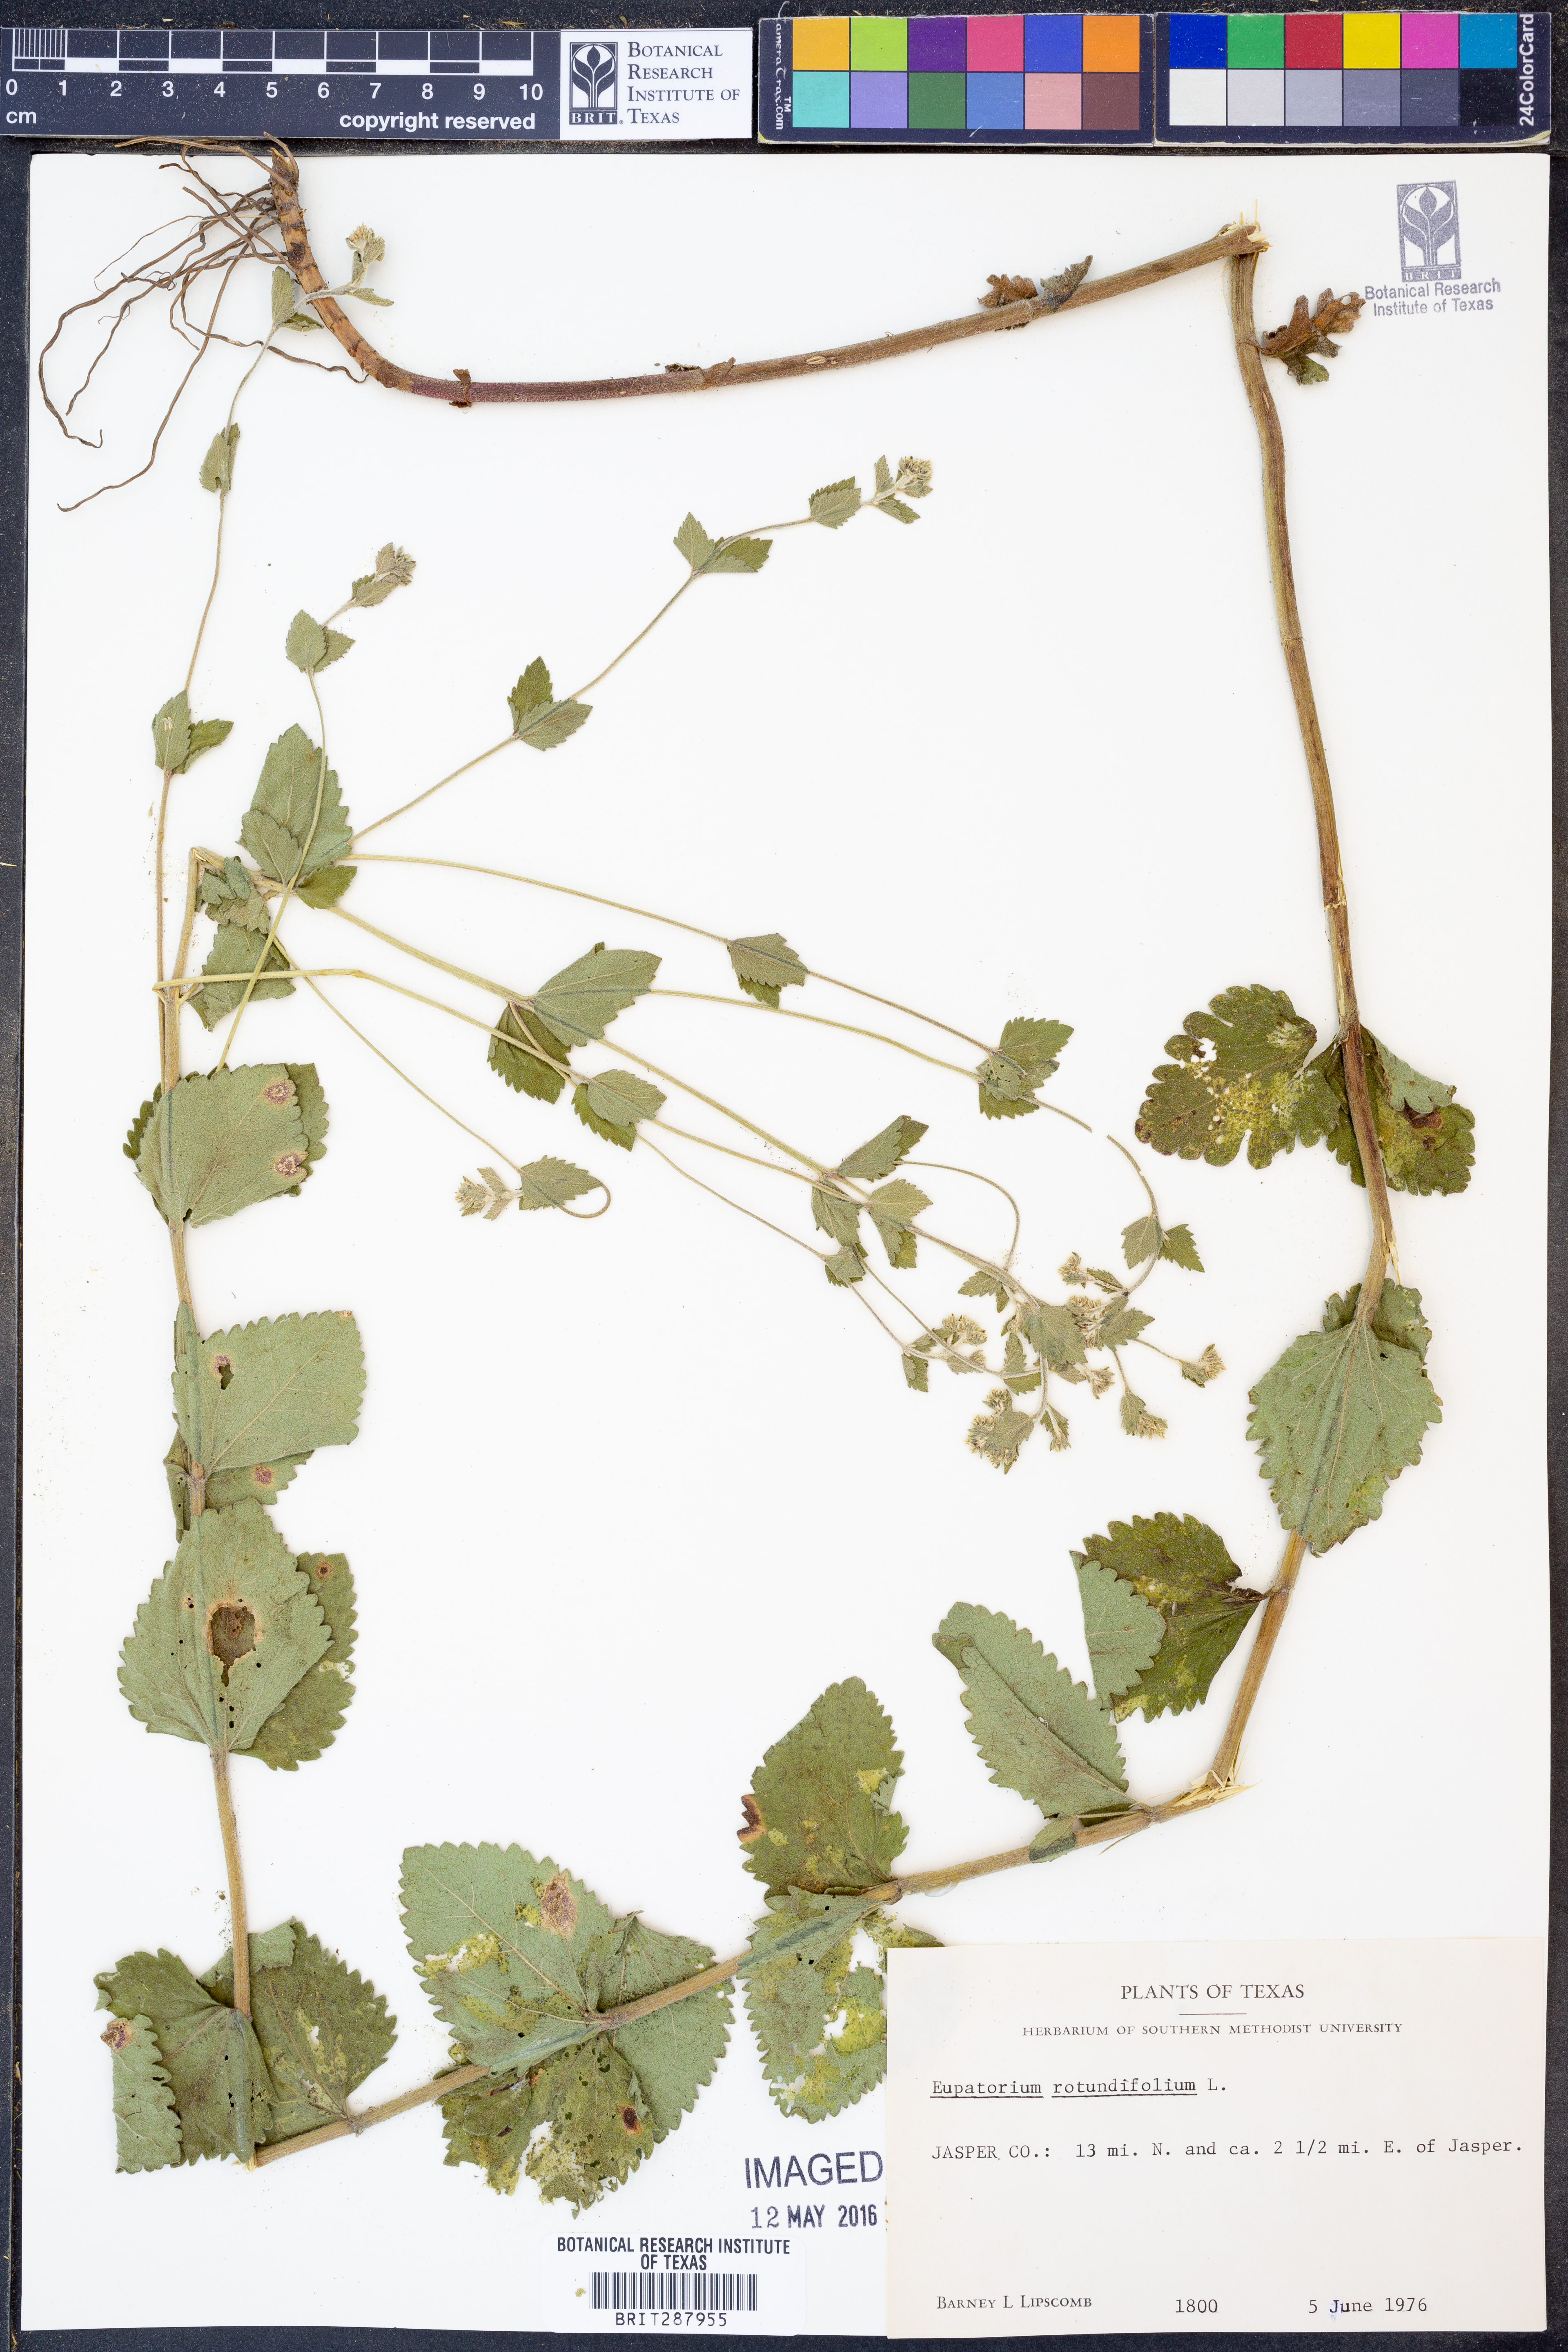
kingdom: Plantae
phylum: Tracheophyta
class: Magnoliopsida
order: Asterales
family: Asteraceae
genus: Eupatorium
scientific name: Eupatorium rotundifolium
